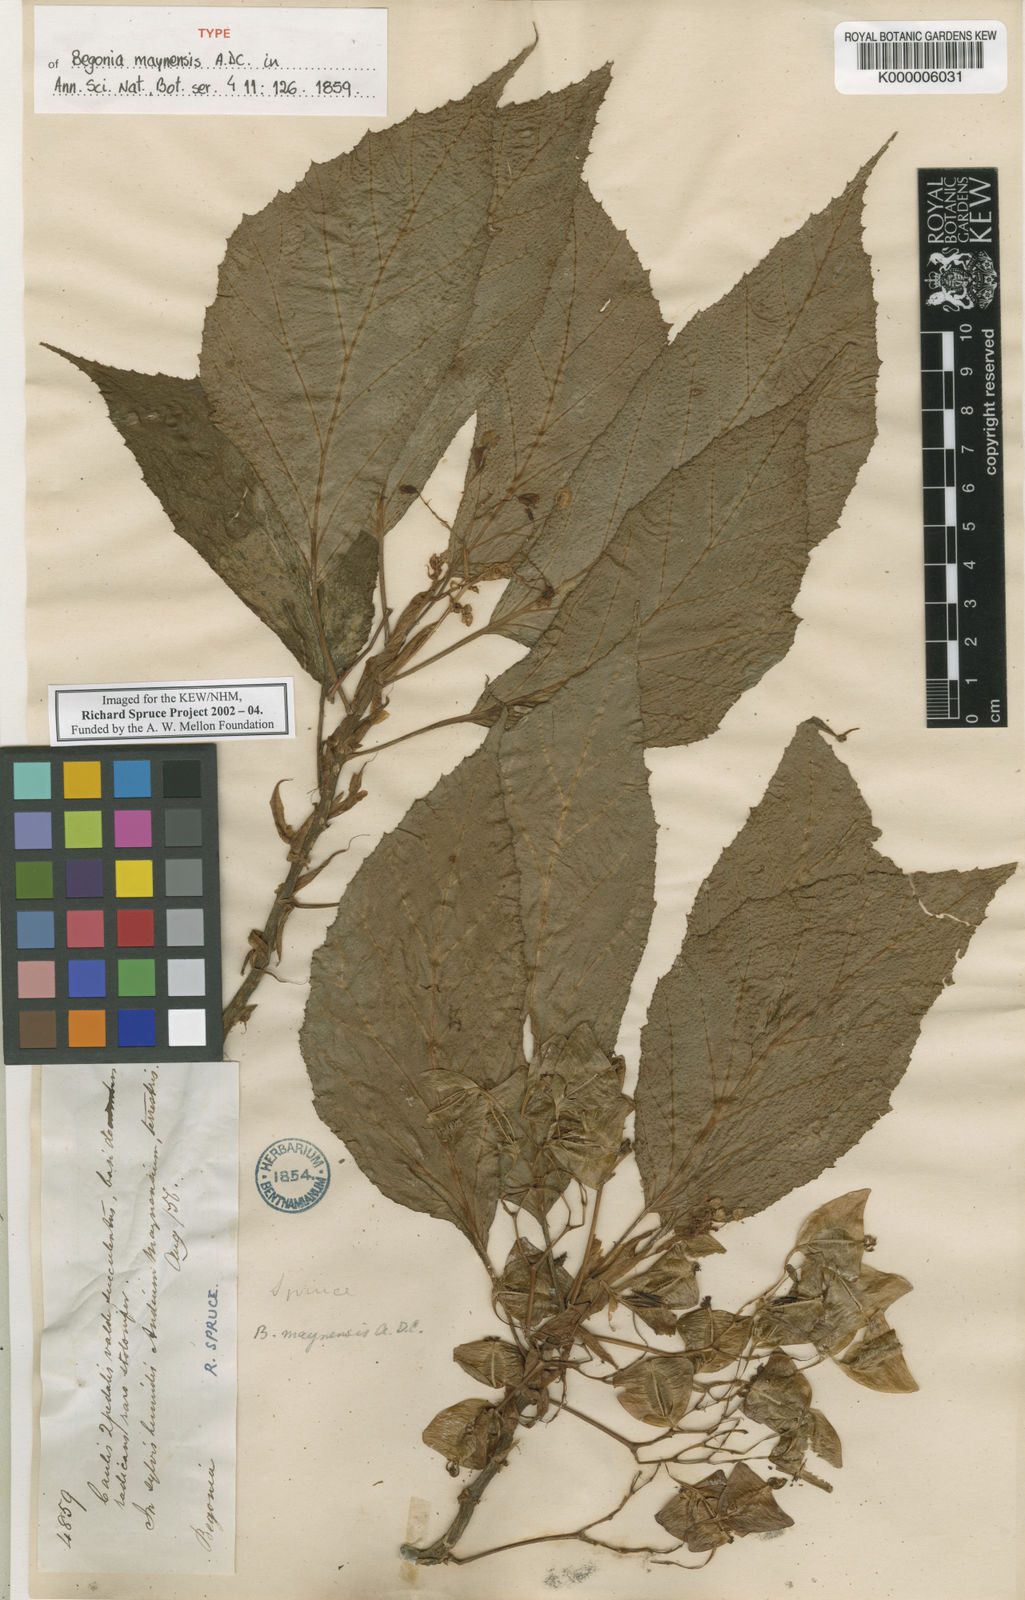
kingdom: Plantae
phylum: Tracheophyta
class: Magnoliopsida
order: Cucurbitales
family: Begoniaceae
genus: Begonia
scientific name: Begonia maynensis
